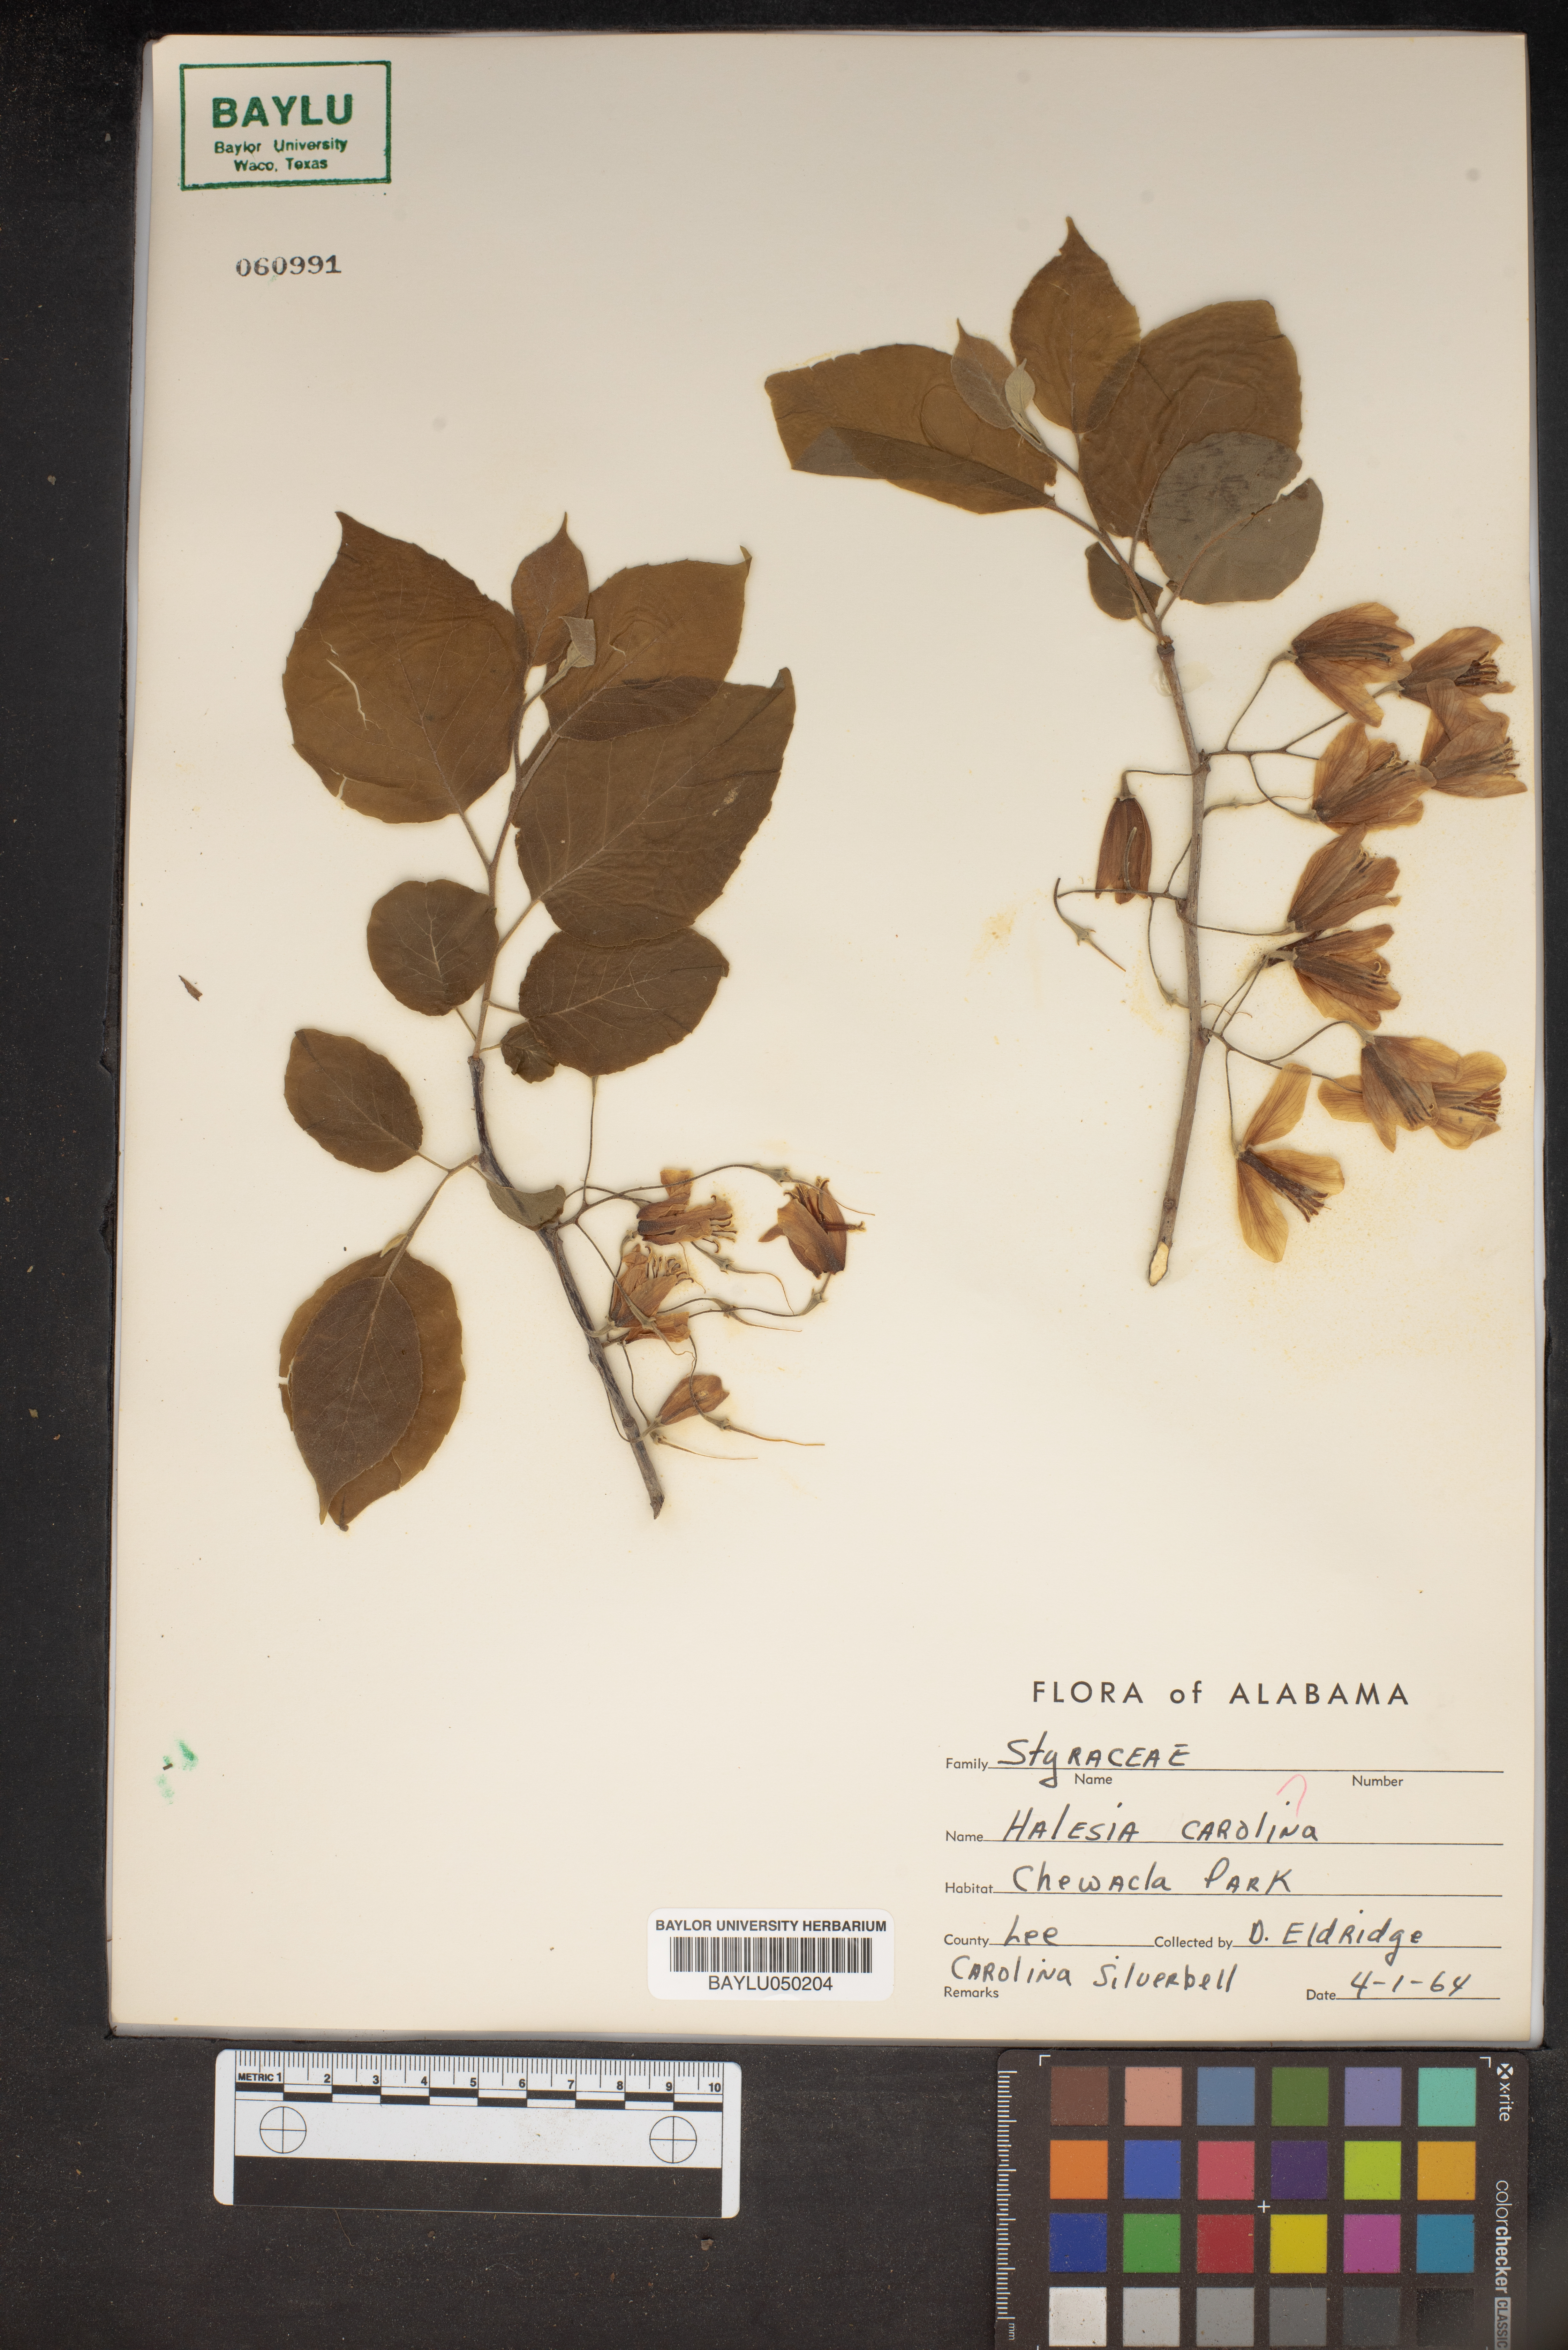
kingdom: Plantae
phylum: Tracheophyta
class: Magnoliopsida
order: Ericales
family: Styracaceae
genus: Halesia
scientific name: Halesia carolina
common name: Carolina silverbell
